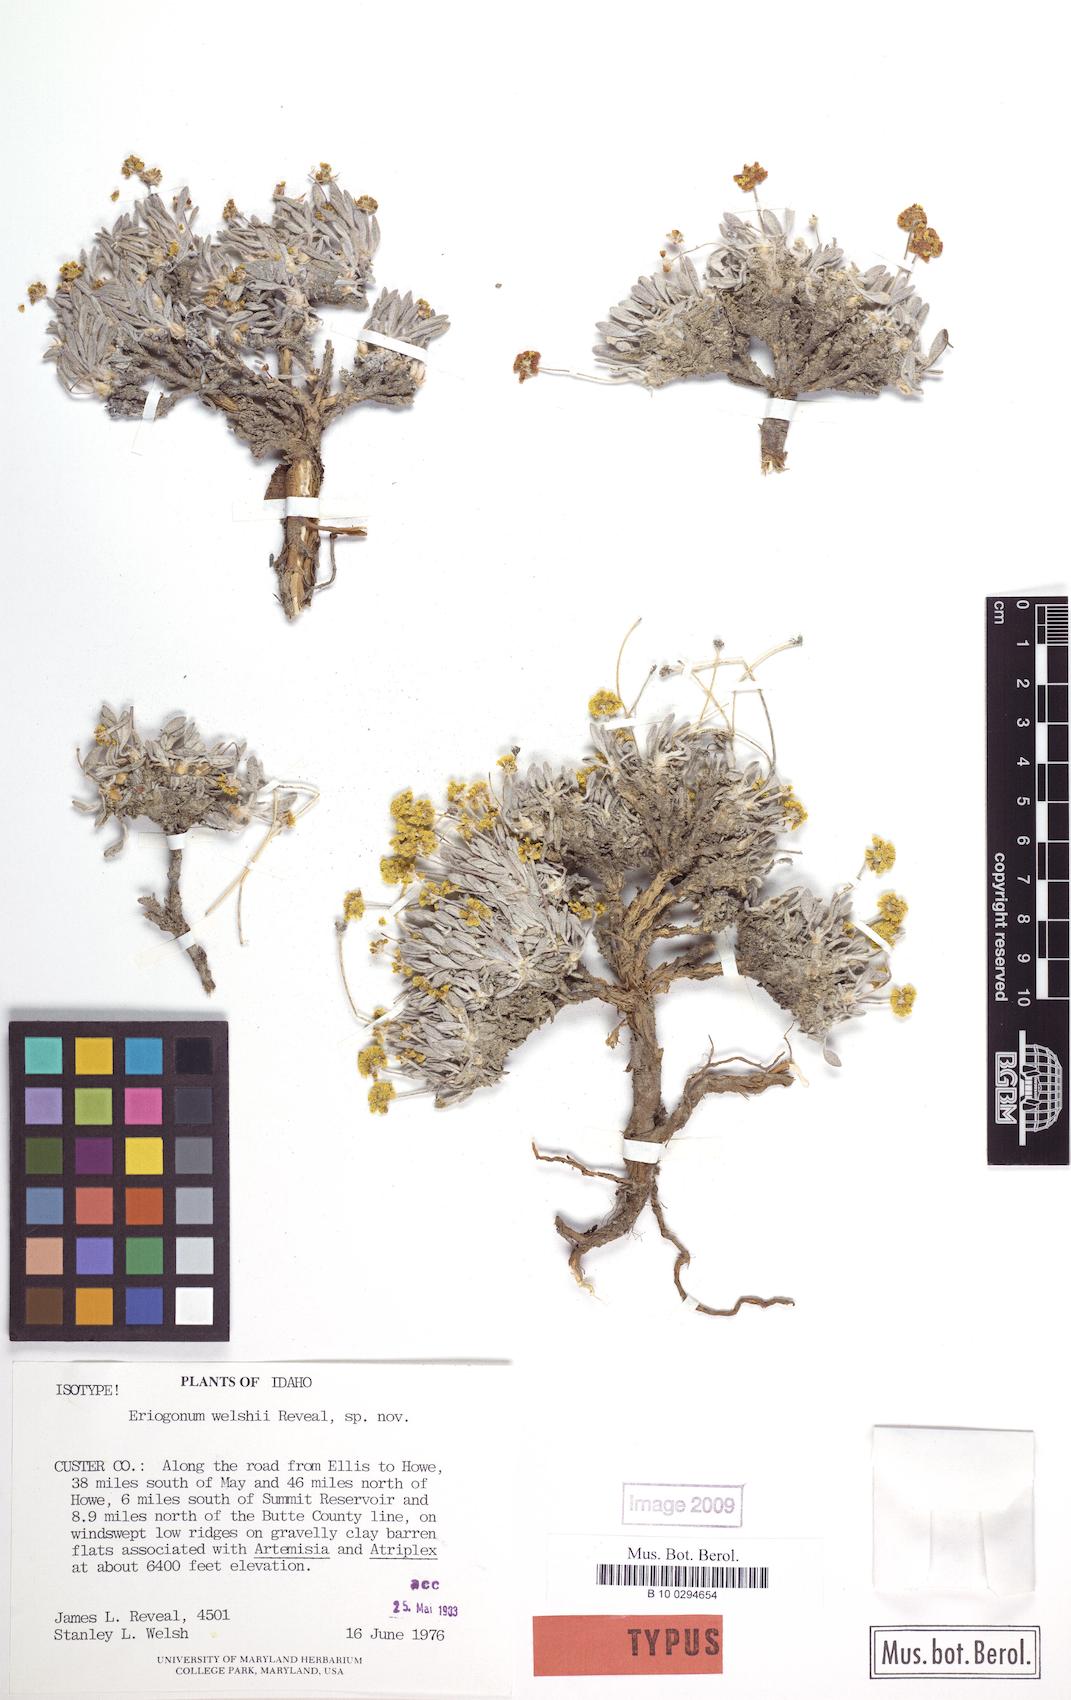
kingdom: Plantae
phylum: Tracheophyta
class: Magnoliopsida
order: Caryophyllales
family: Polygonaceae
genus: Eriogonum
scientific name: Eriogonum welshii
